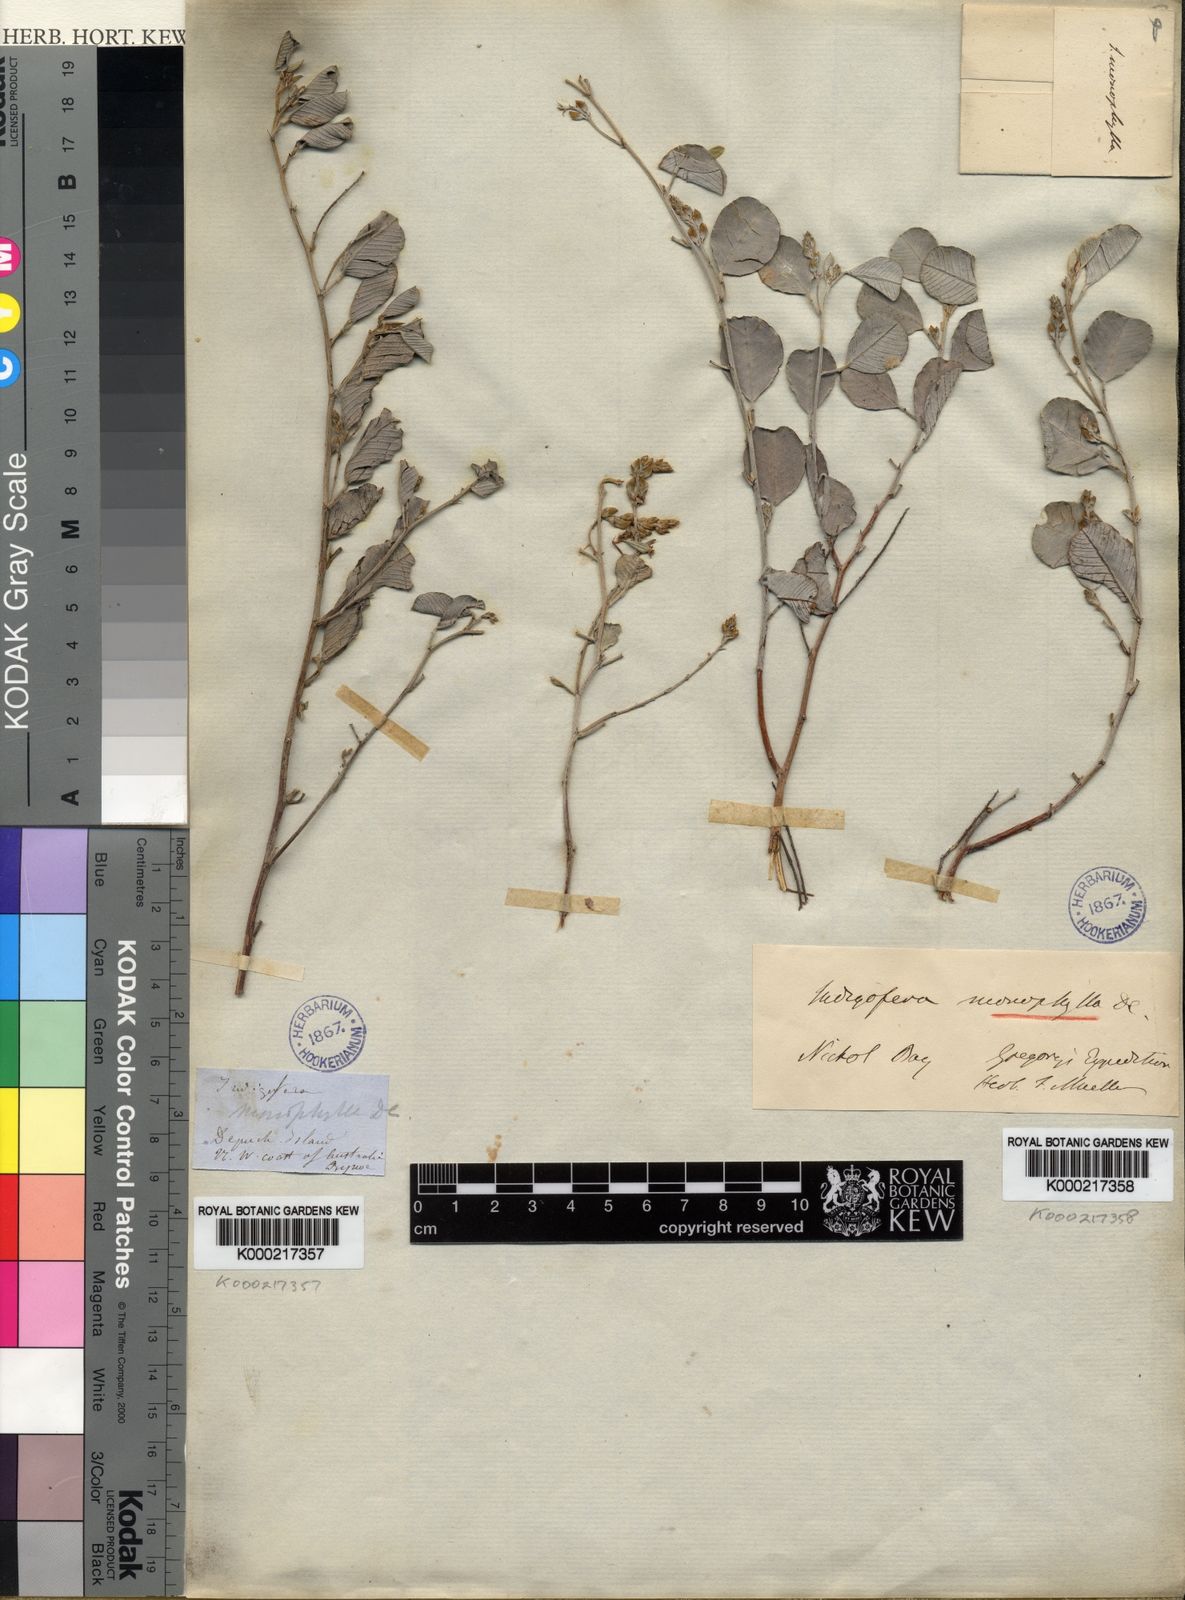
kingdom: Plantae
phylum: Tracheophyta
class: Magnoliopsida
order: Fabales
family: Fabaceae
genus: Indigofera
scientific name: Indigofera
